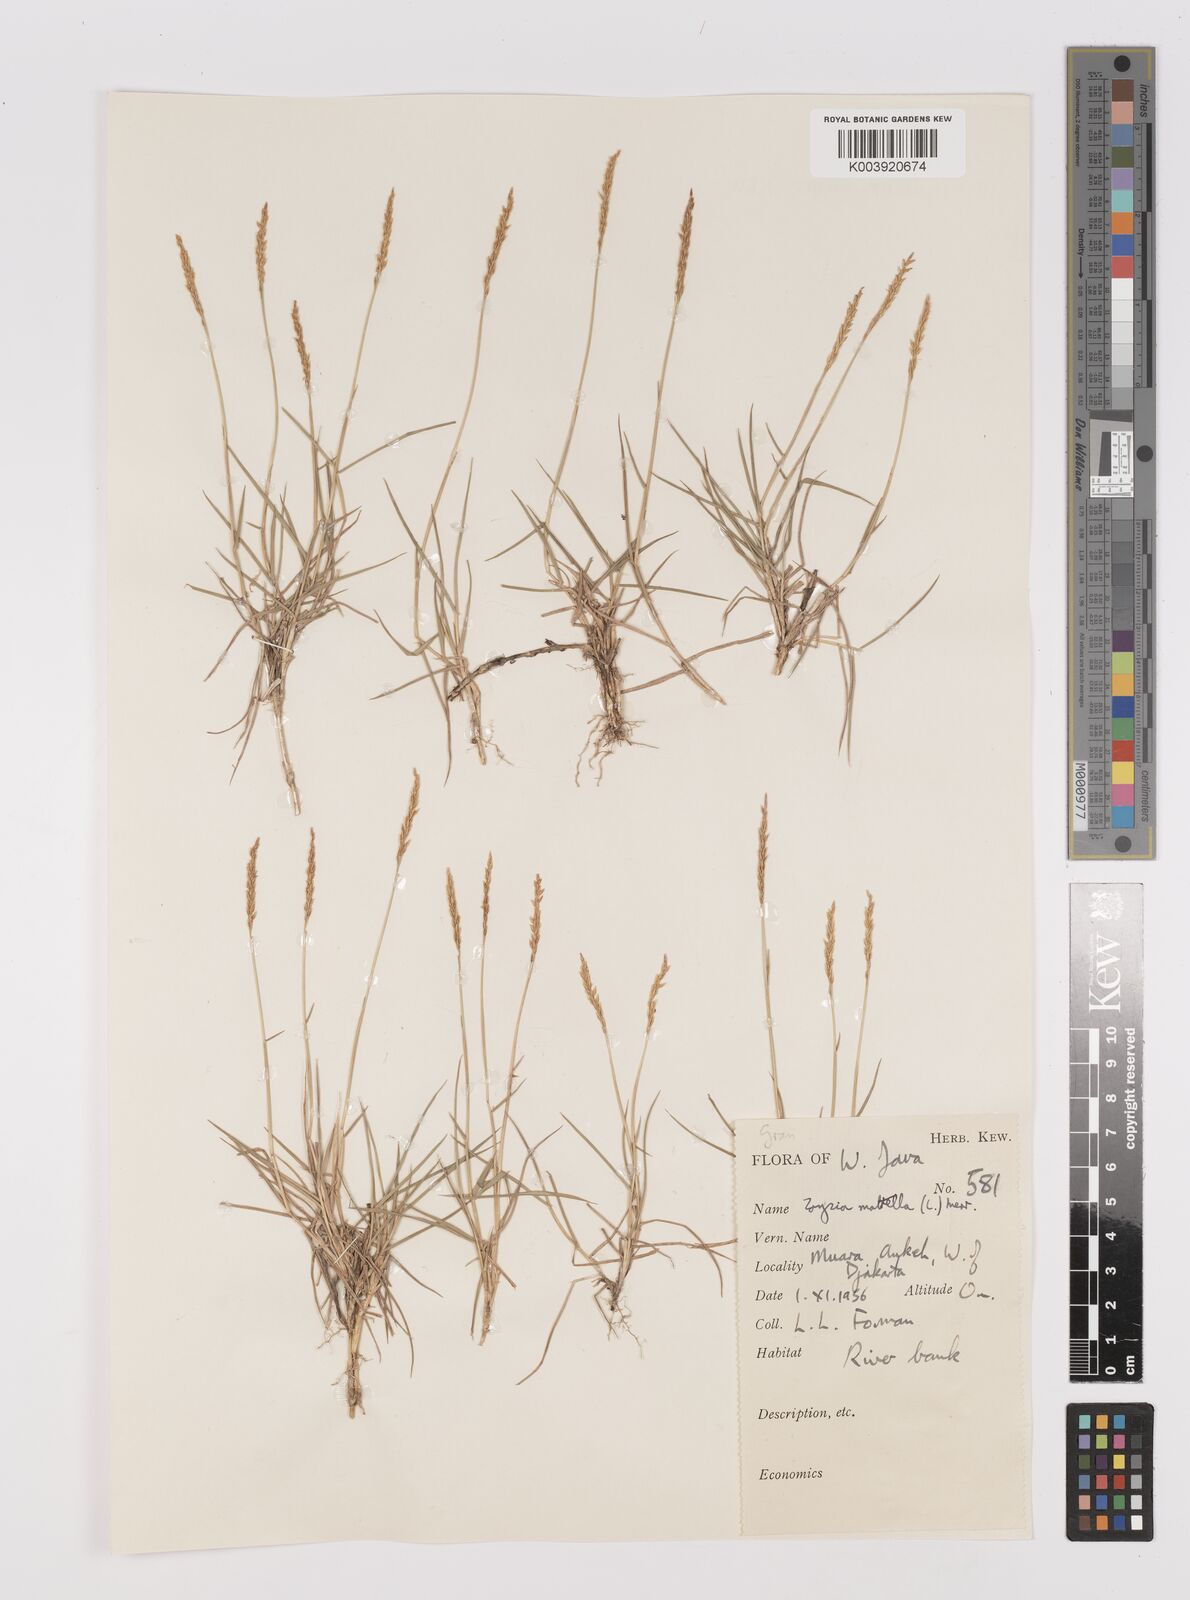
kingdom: Plantae
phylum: Tracheophyta
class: Liliopsida
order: Poales
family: Poaceae
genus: Zoysia
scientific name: Zoysia matrella
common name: Manila grass
